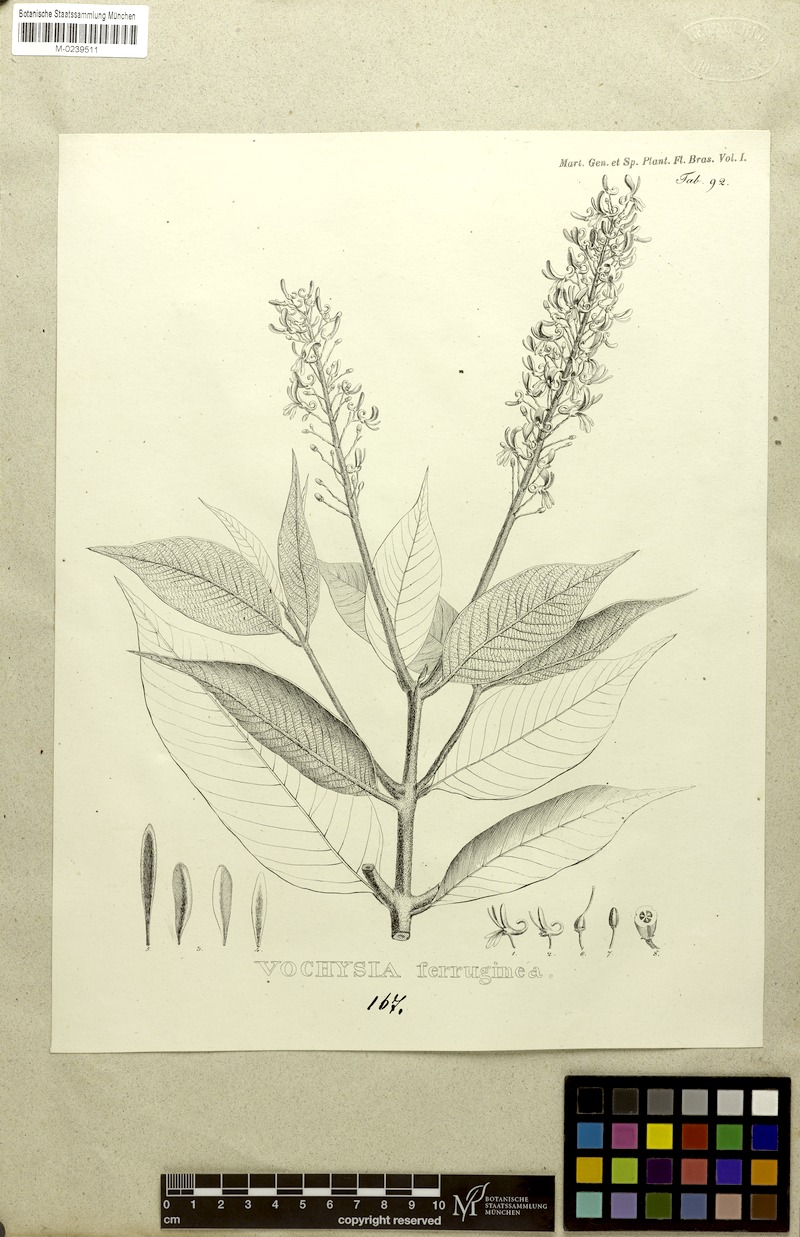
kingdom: Plantae
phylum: Tracheophyta
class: Magnoliopsida
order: Myrtales
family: Vochysiaceae
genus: Vochysia
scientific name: Vochysia ferruginea
